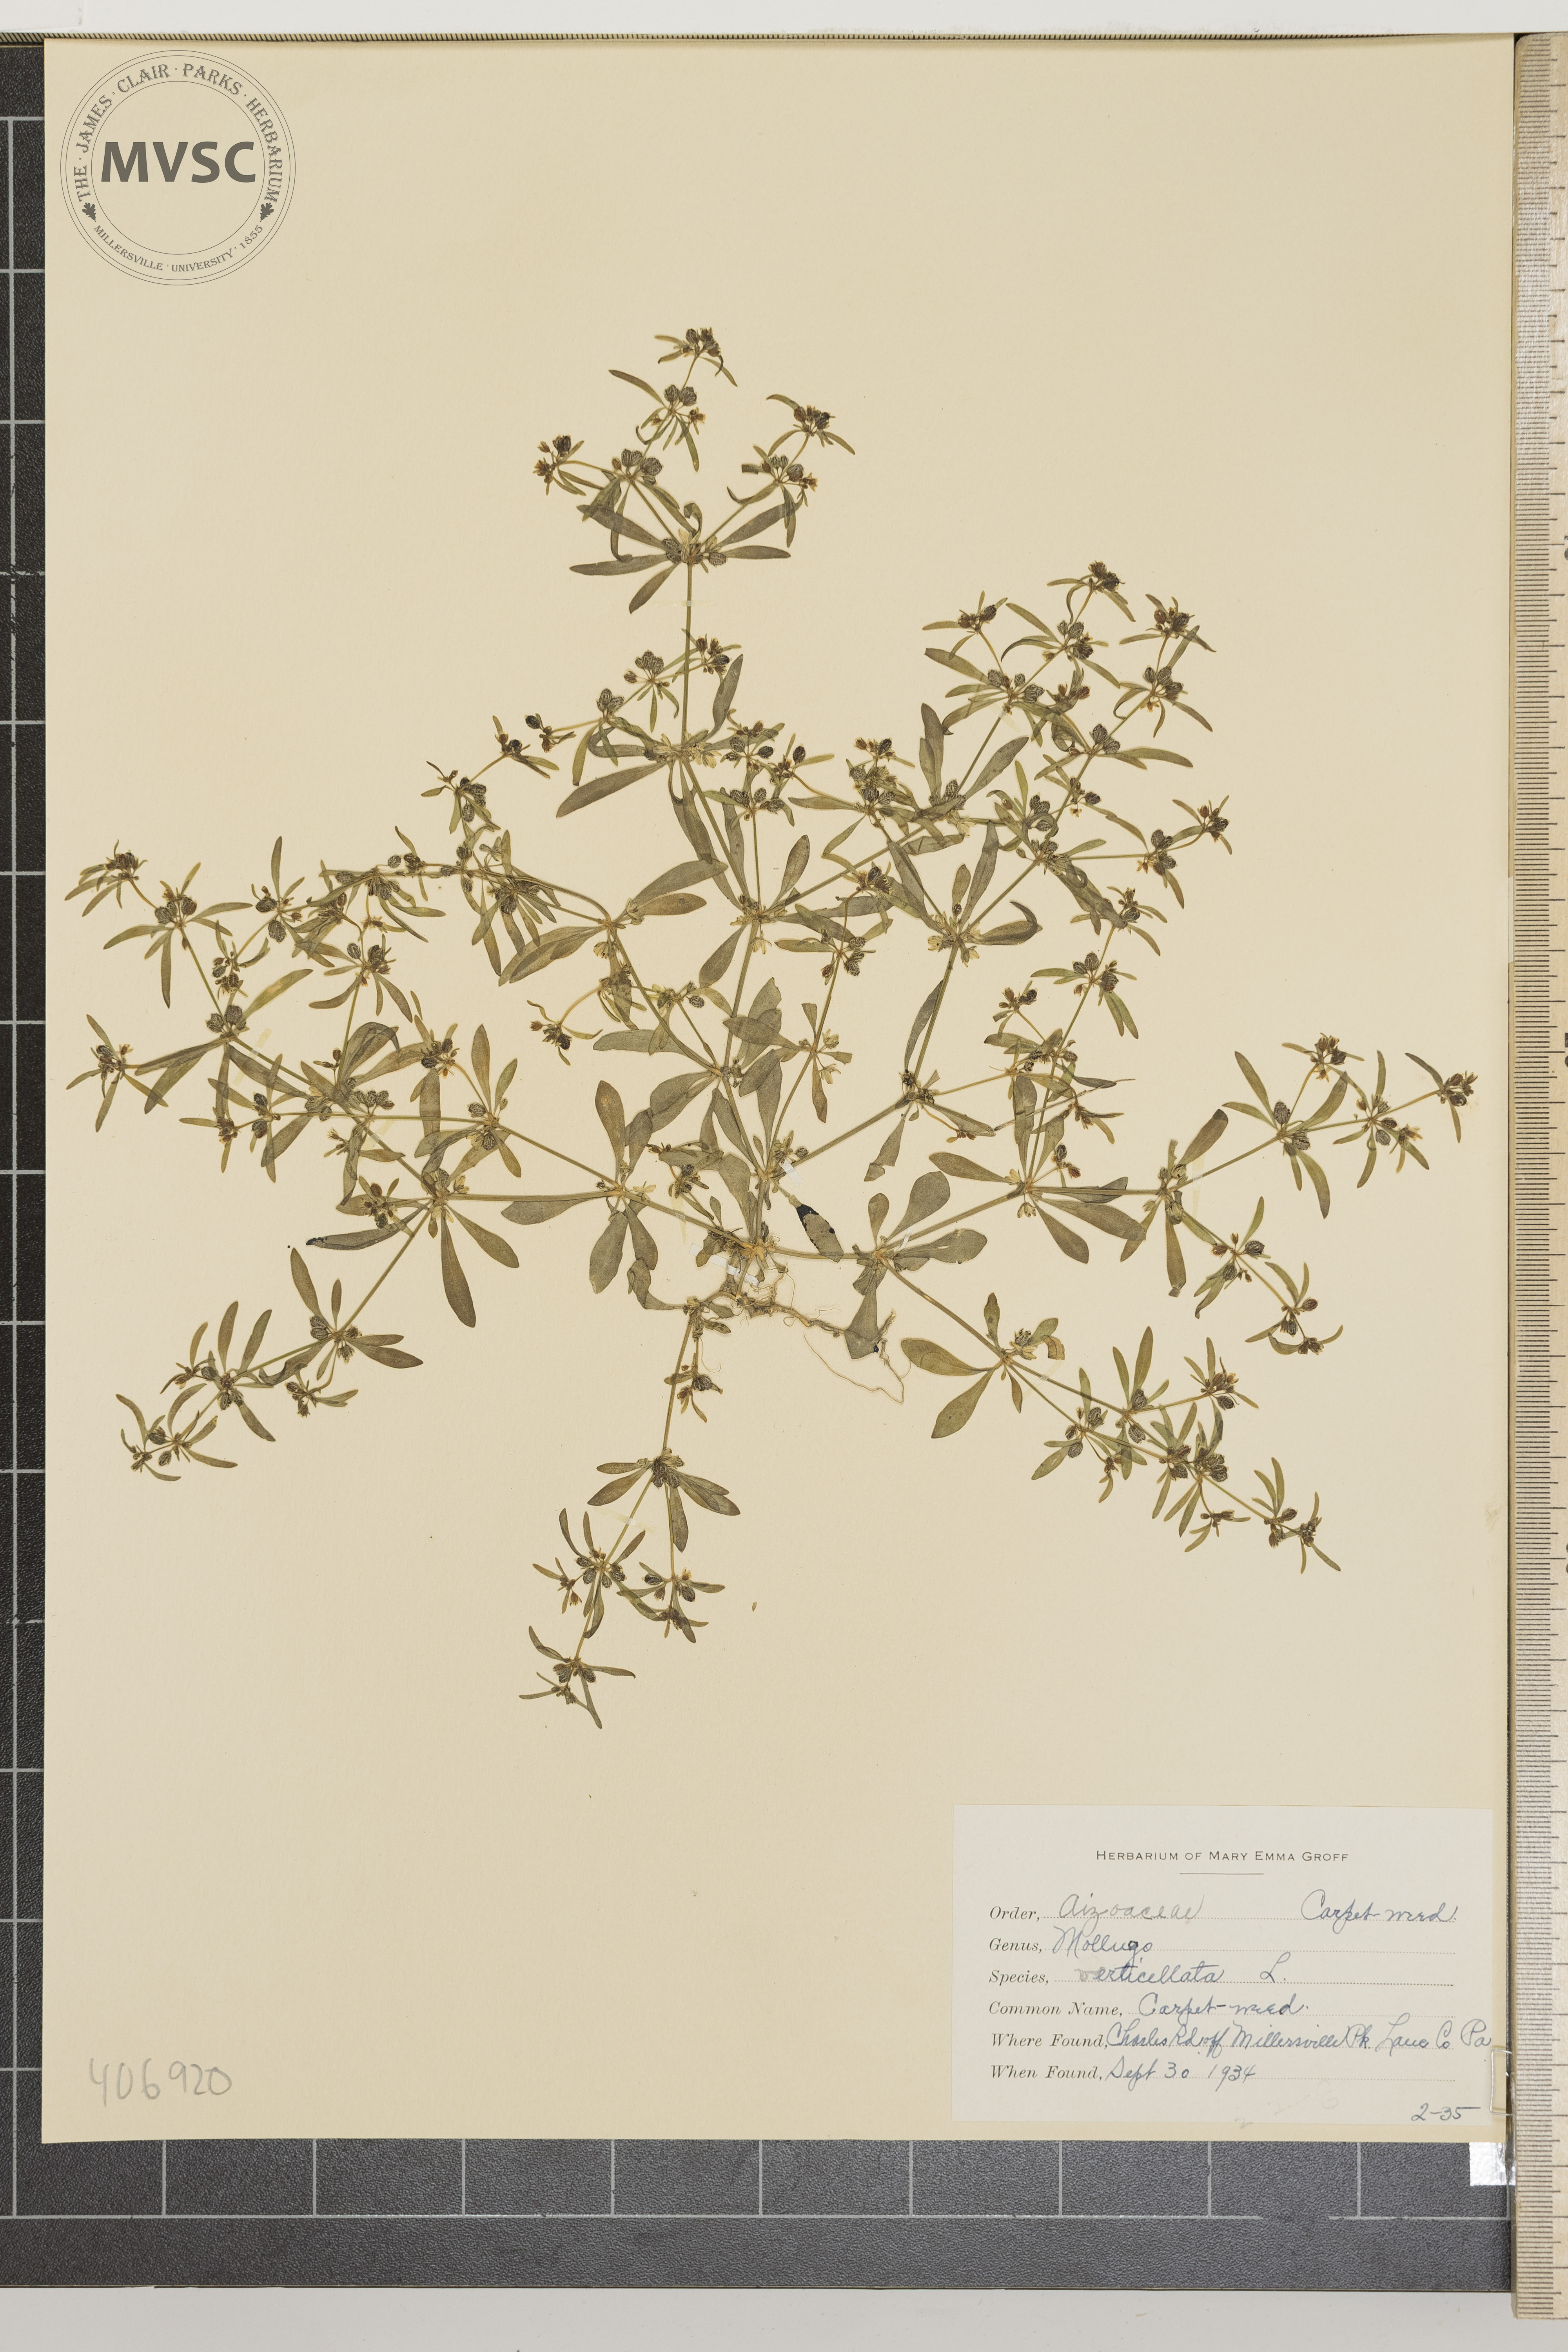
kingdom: Plantae
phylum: Tracheophyta
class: Magnoliopsida
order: Caryophyllales
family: Molluginaceae
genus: Mollugo
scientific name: Mollugo verticillata
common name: Carpet-weed
